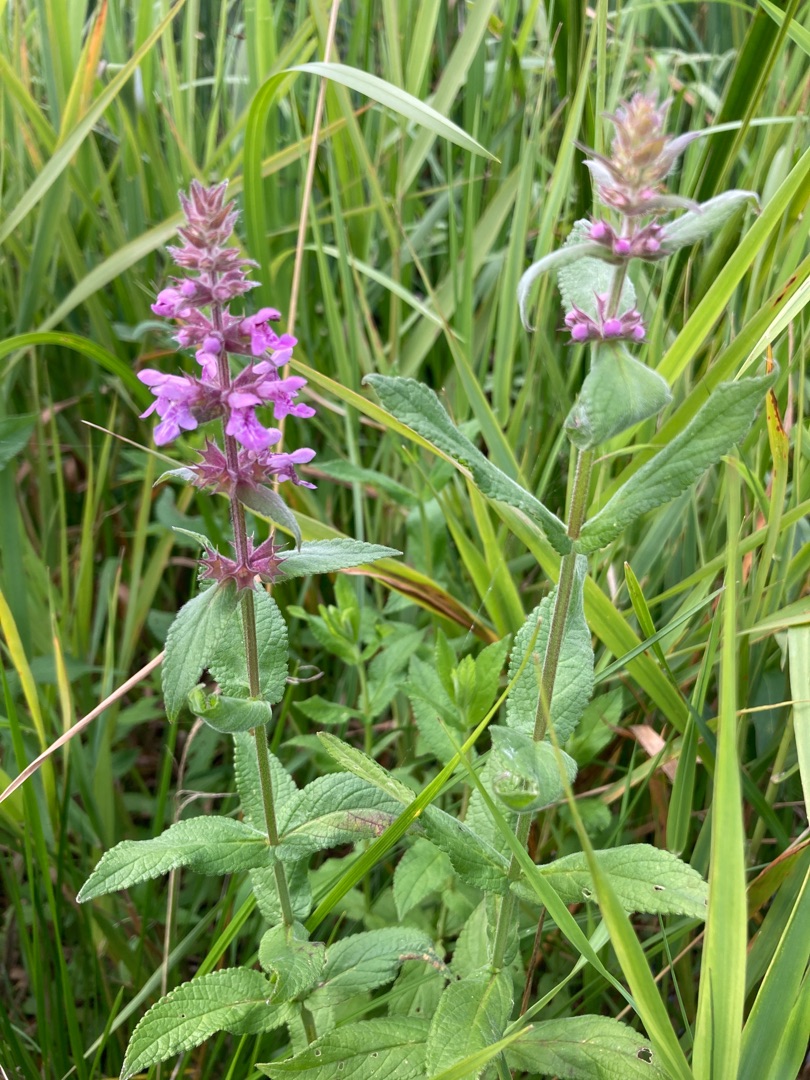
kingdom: Plantae
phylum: Tracheophyta
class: Magnoliopsida
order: Lamiales
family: Lamiaceae
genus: Stachys
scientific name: Stachys palustris
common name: Kær-galtetand
